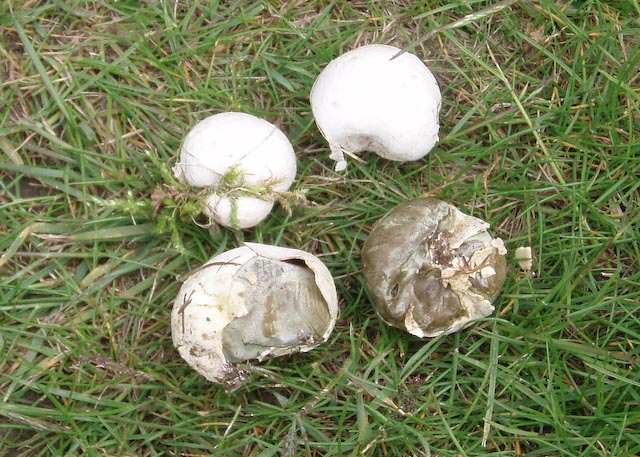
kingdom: Fungi
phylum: Basidiomycota
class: Agaricomycetes
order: Agaricales
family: Lycoperdaceae
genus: Bovista
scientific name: Bovista plumbea
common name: blygrå bovist
